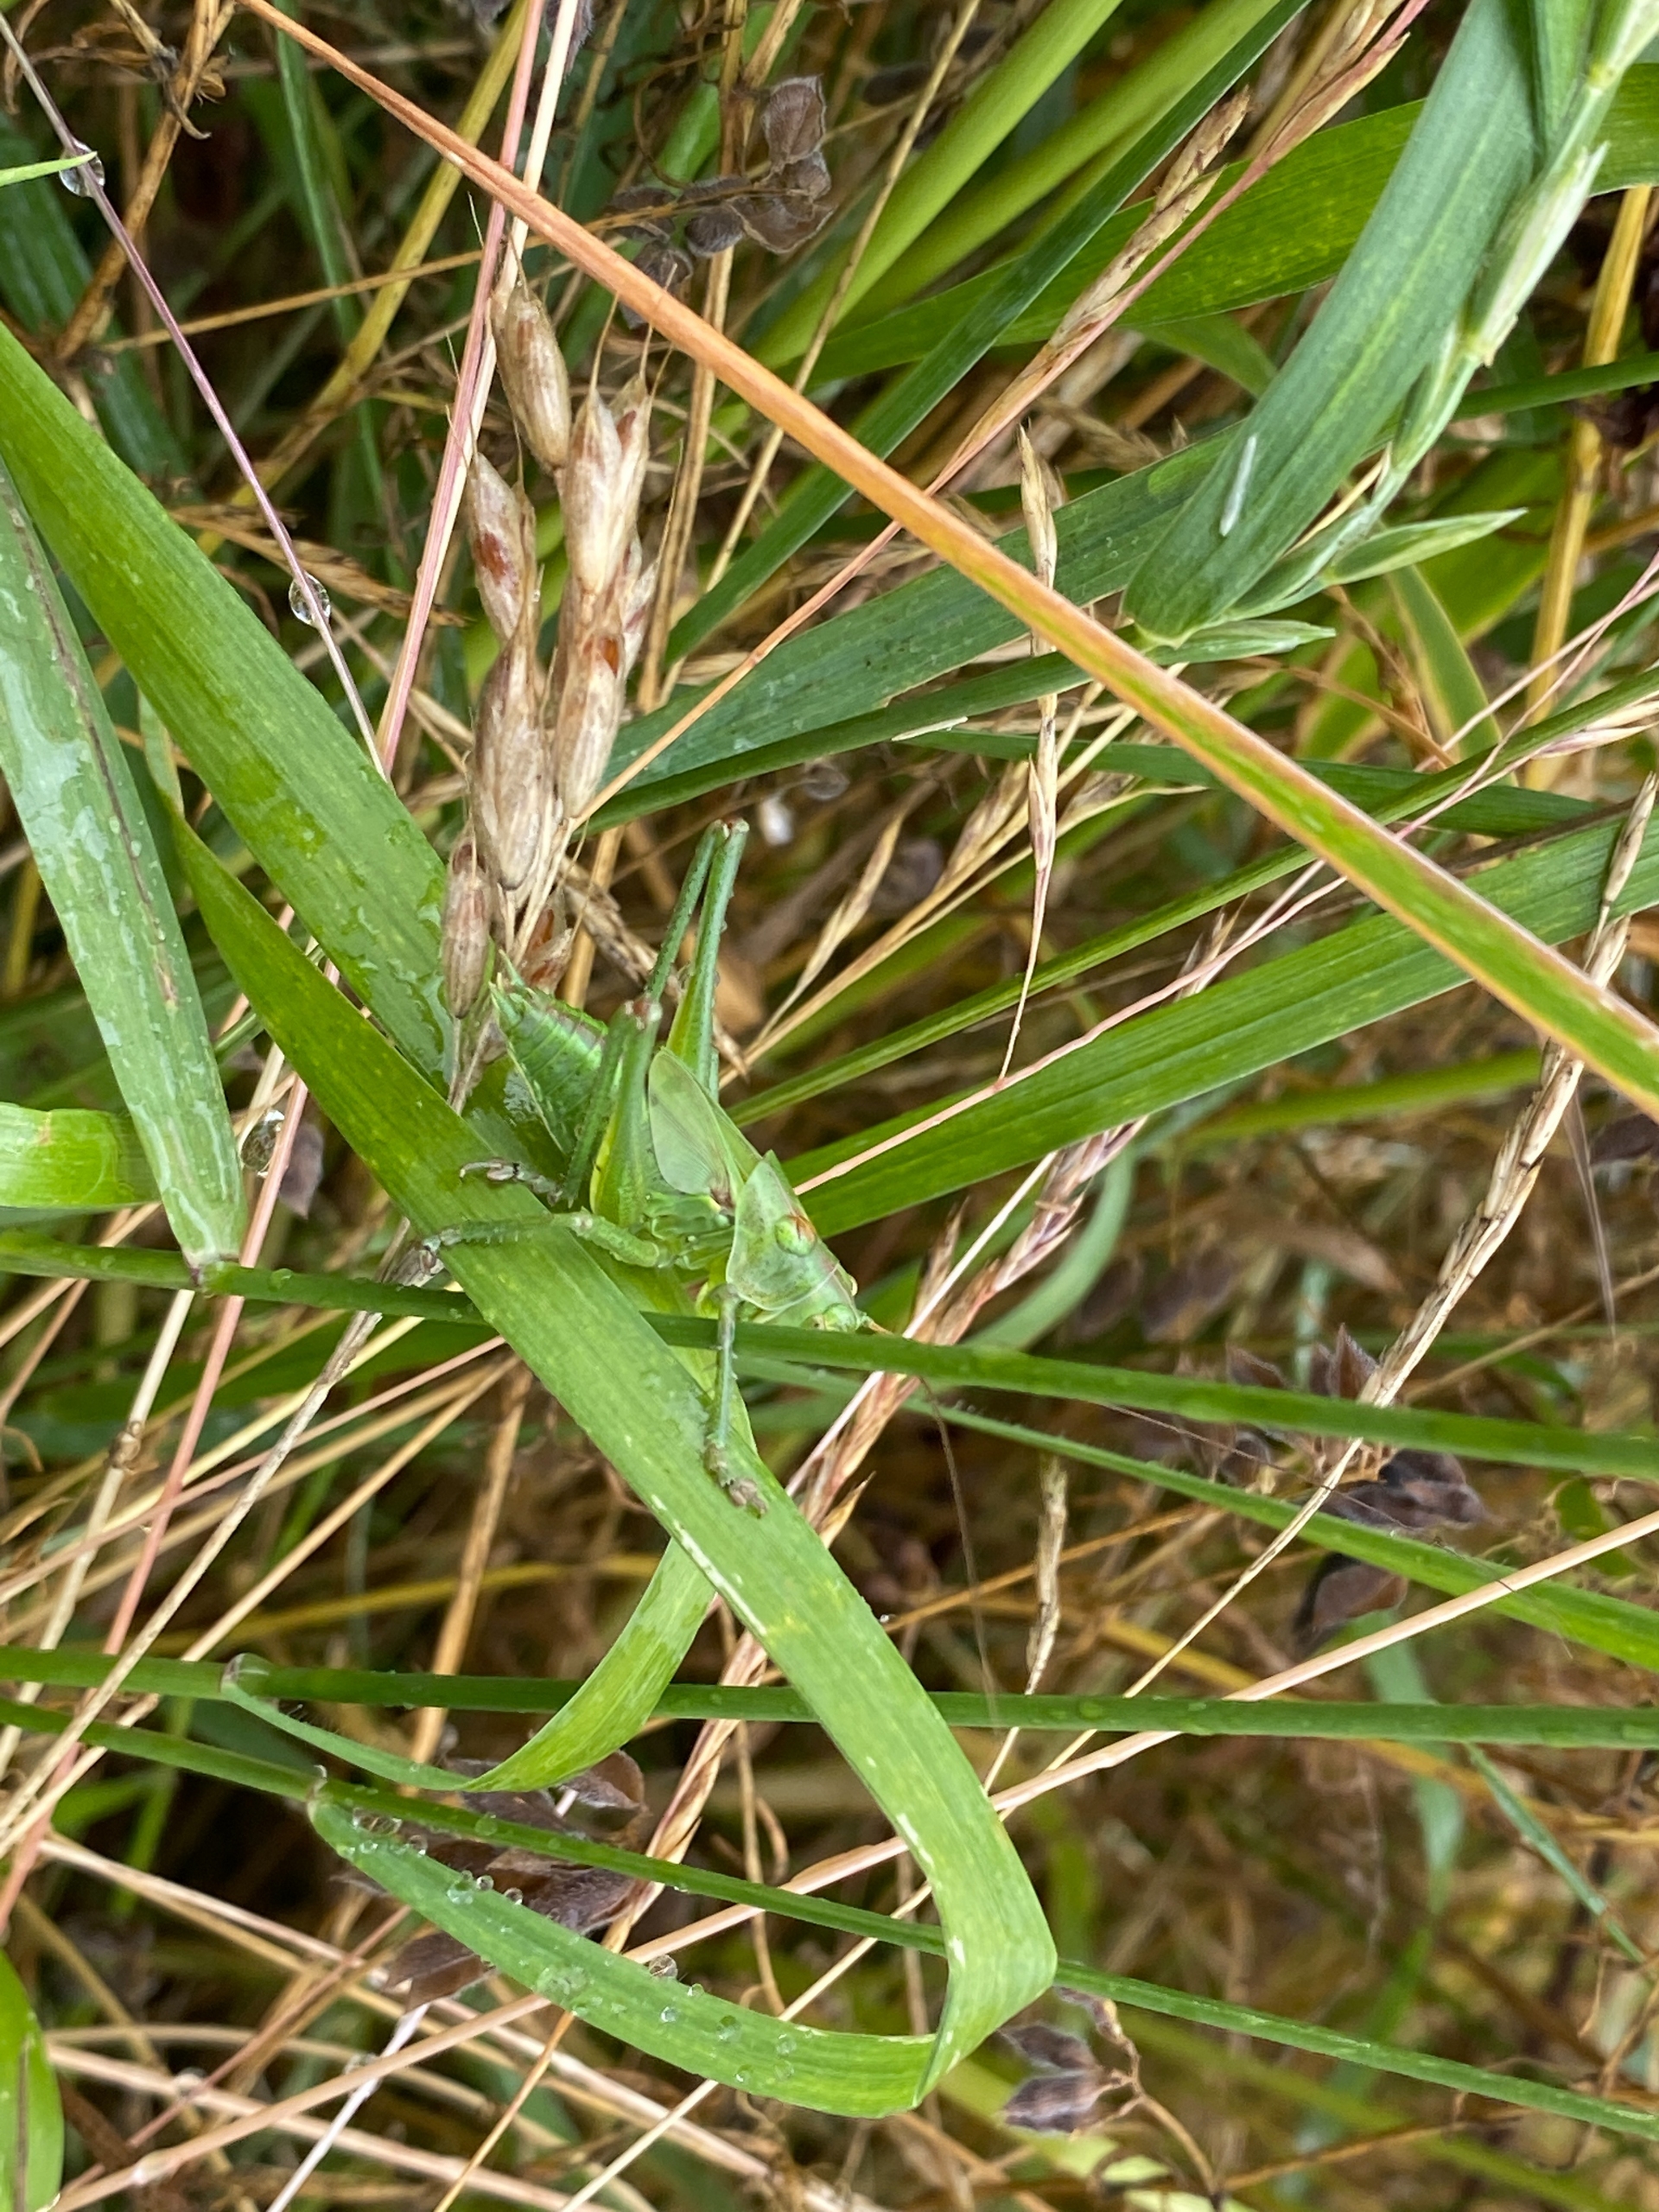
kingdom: Animalia
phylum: Arthropoda
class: Insecta
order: Orthoptera
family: Tettigoniidae
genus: Tettigonia
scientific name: Tettigonia viridissima
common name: Stor grøn løvgræshoppe
